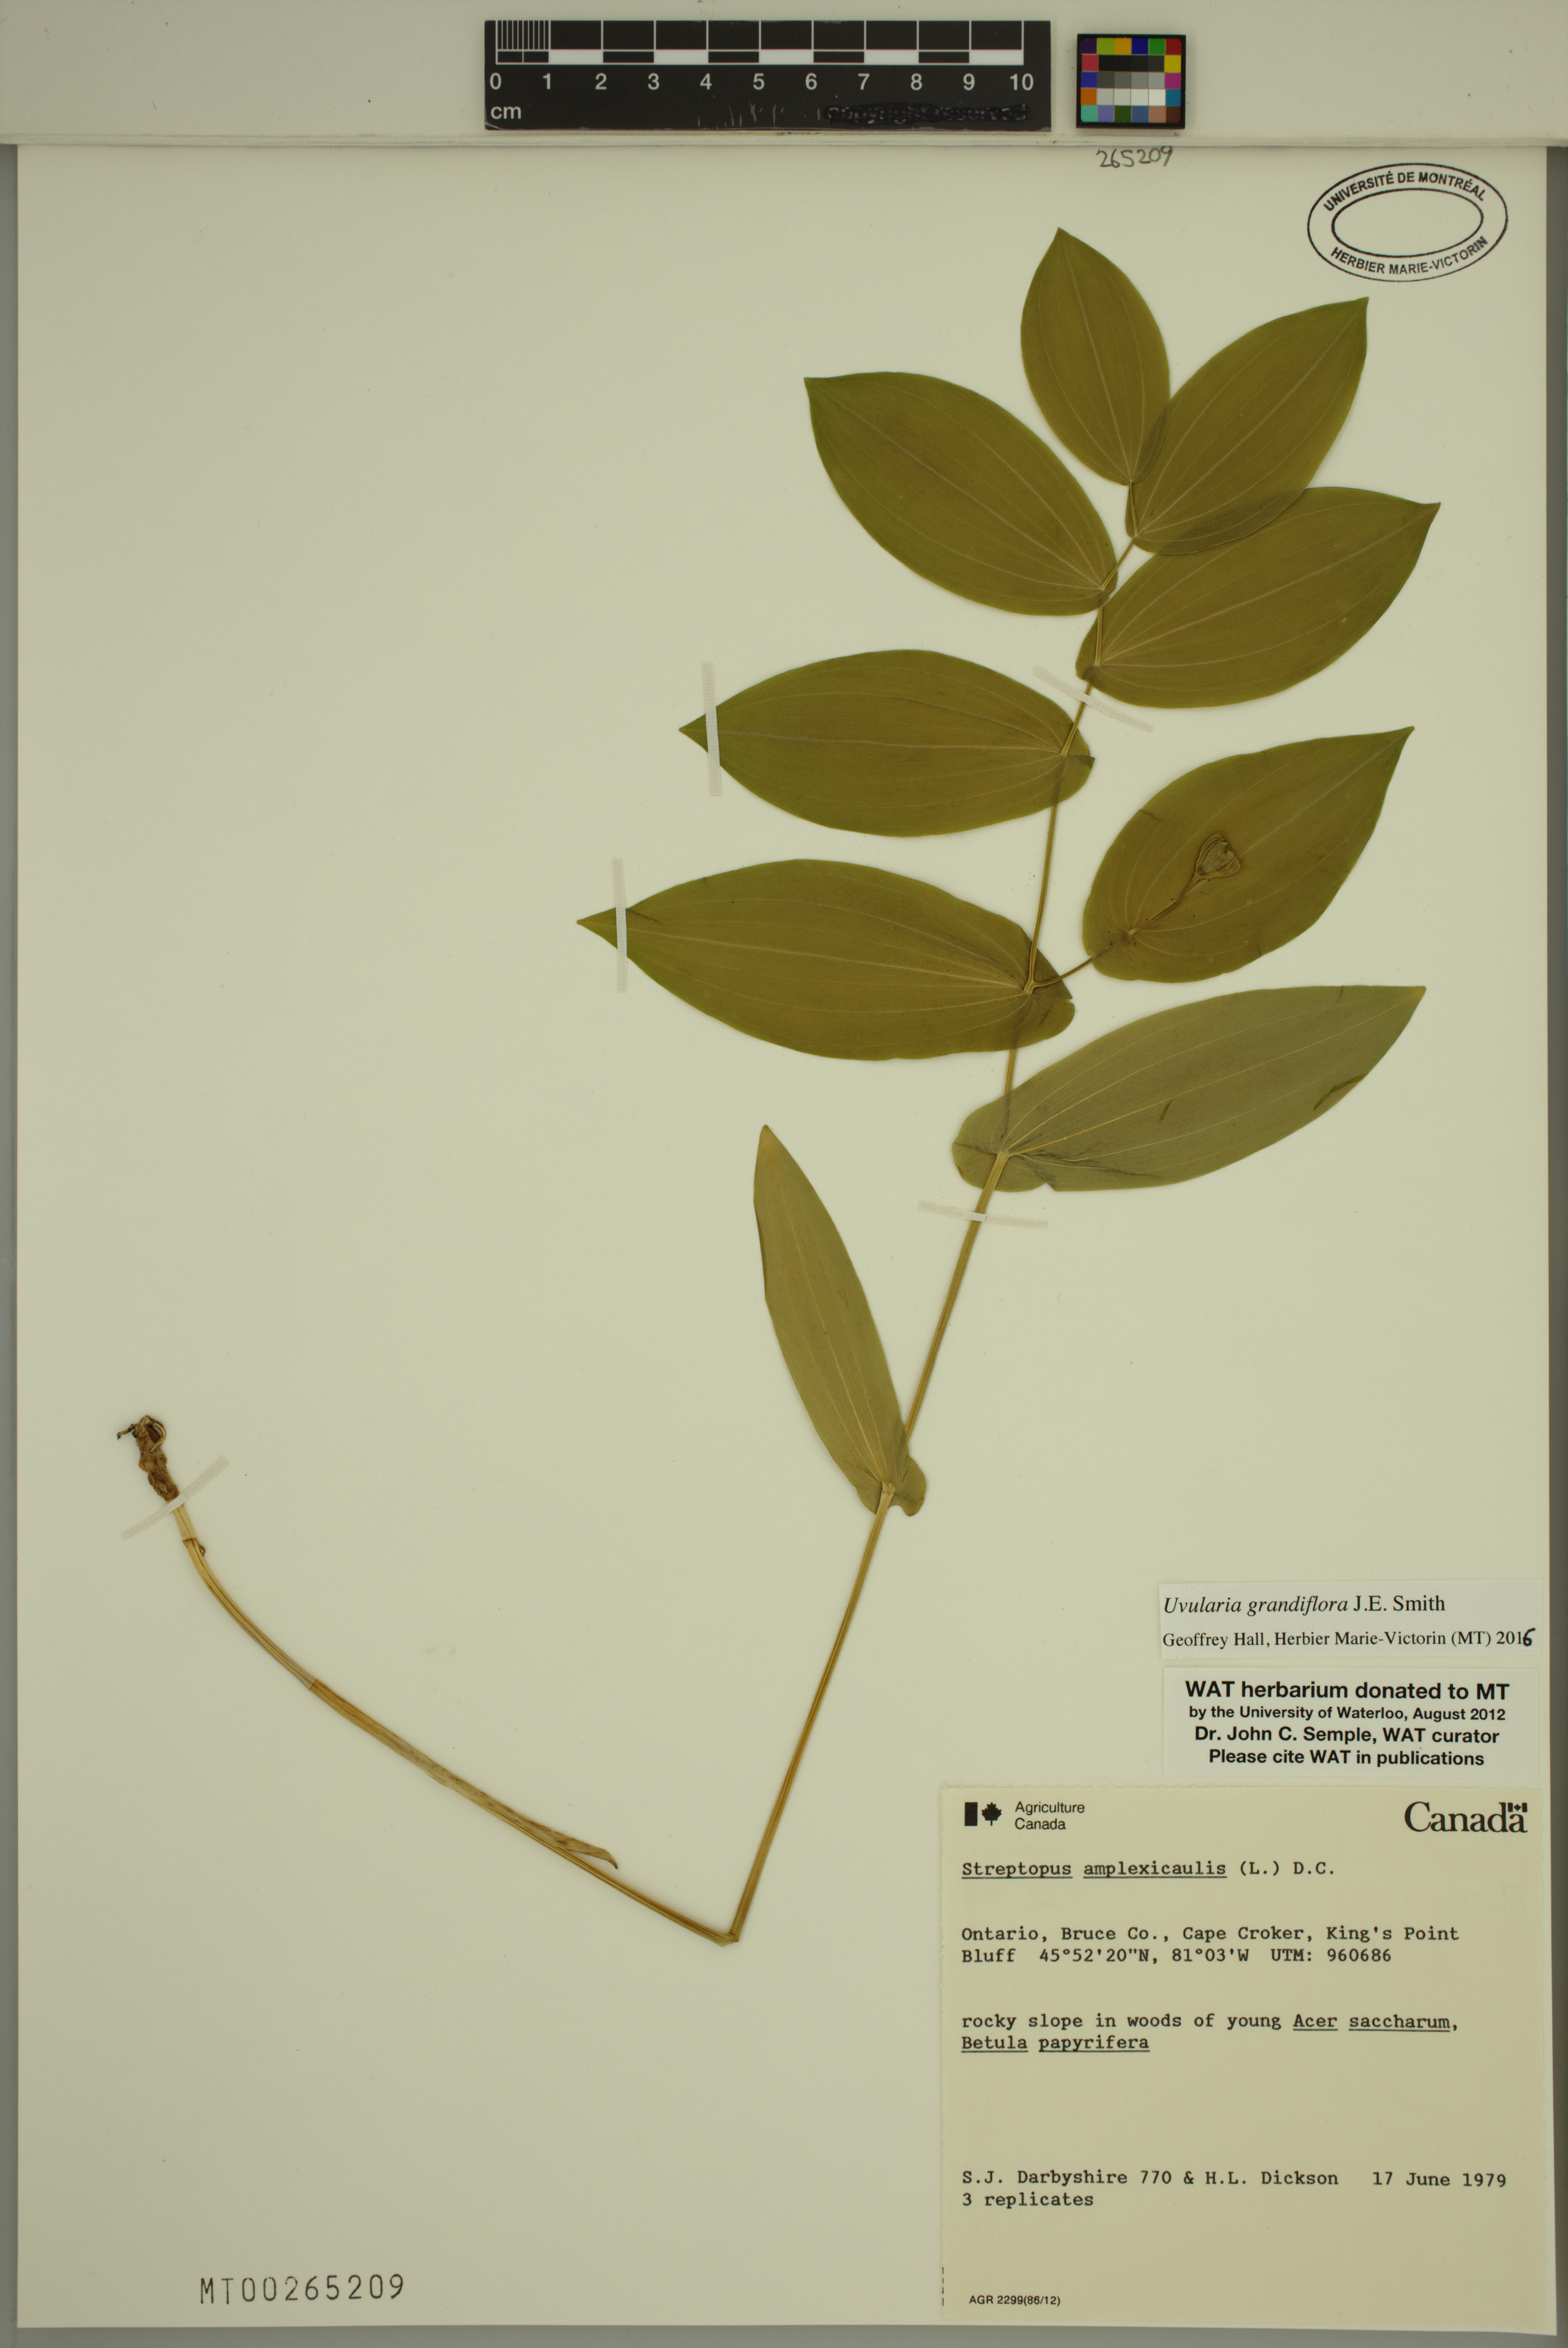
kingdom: Plantae
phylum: Tracheophyta
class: Liliopsida
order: Liliales
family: Colchicaceae
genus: Uvularia
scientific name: Uvularia grandiflora
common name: Bellwort
